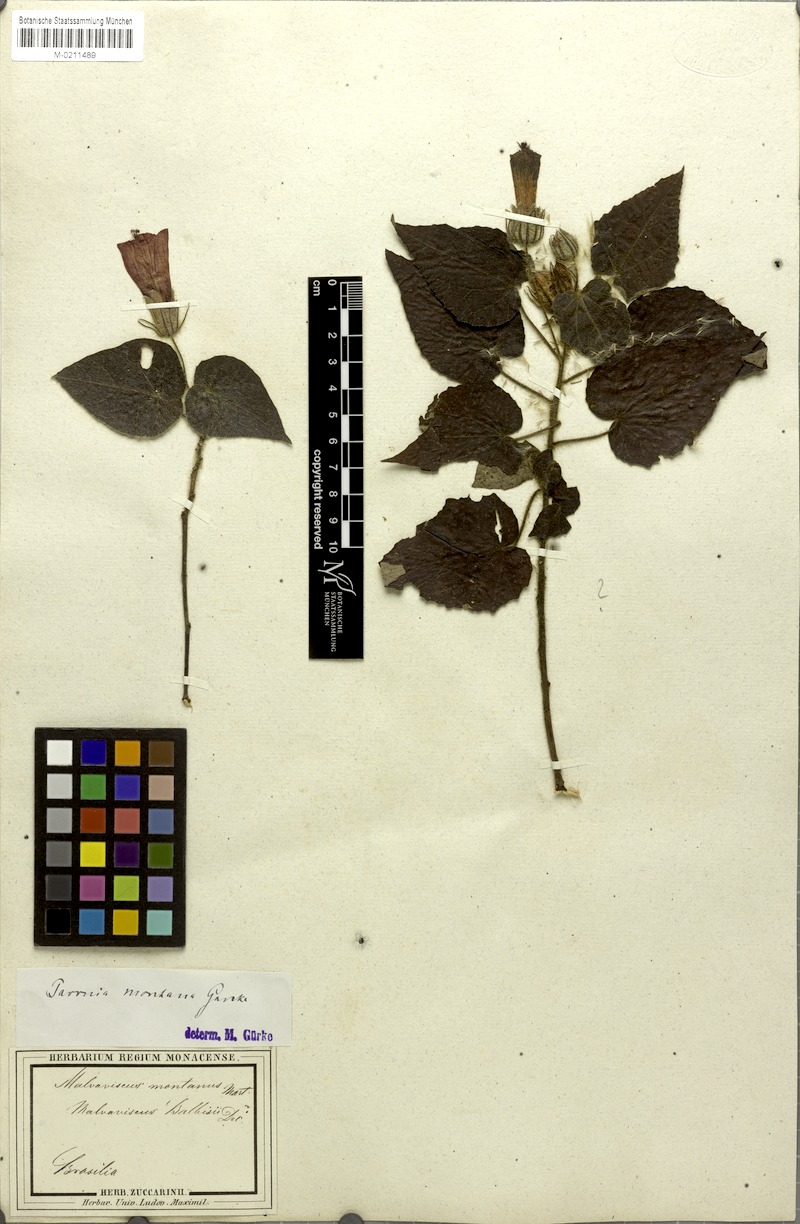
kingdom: Plantae
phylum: Tracheophyta
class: Magnoliopsida
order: Malvales
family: Malvaceae
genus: Pavonia
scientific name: Pavonia montana
